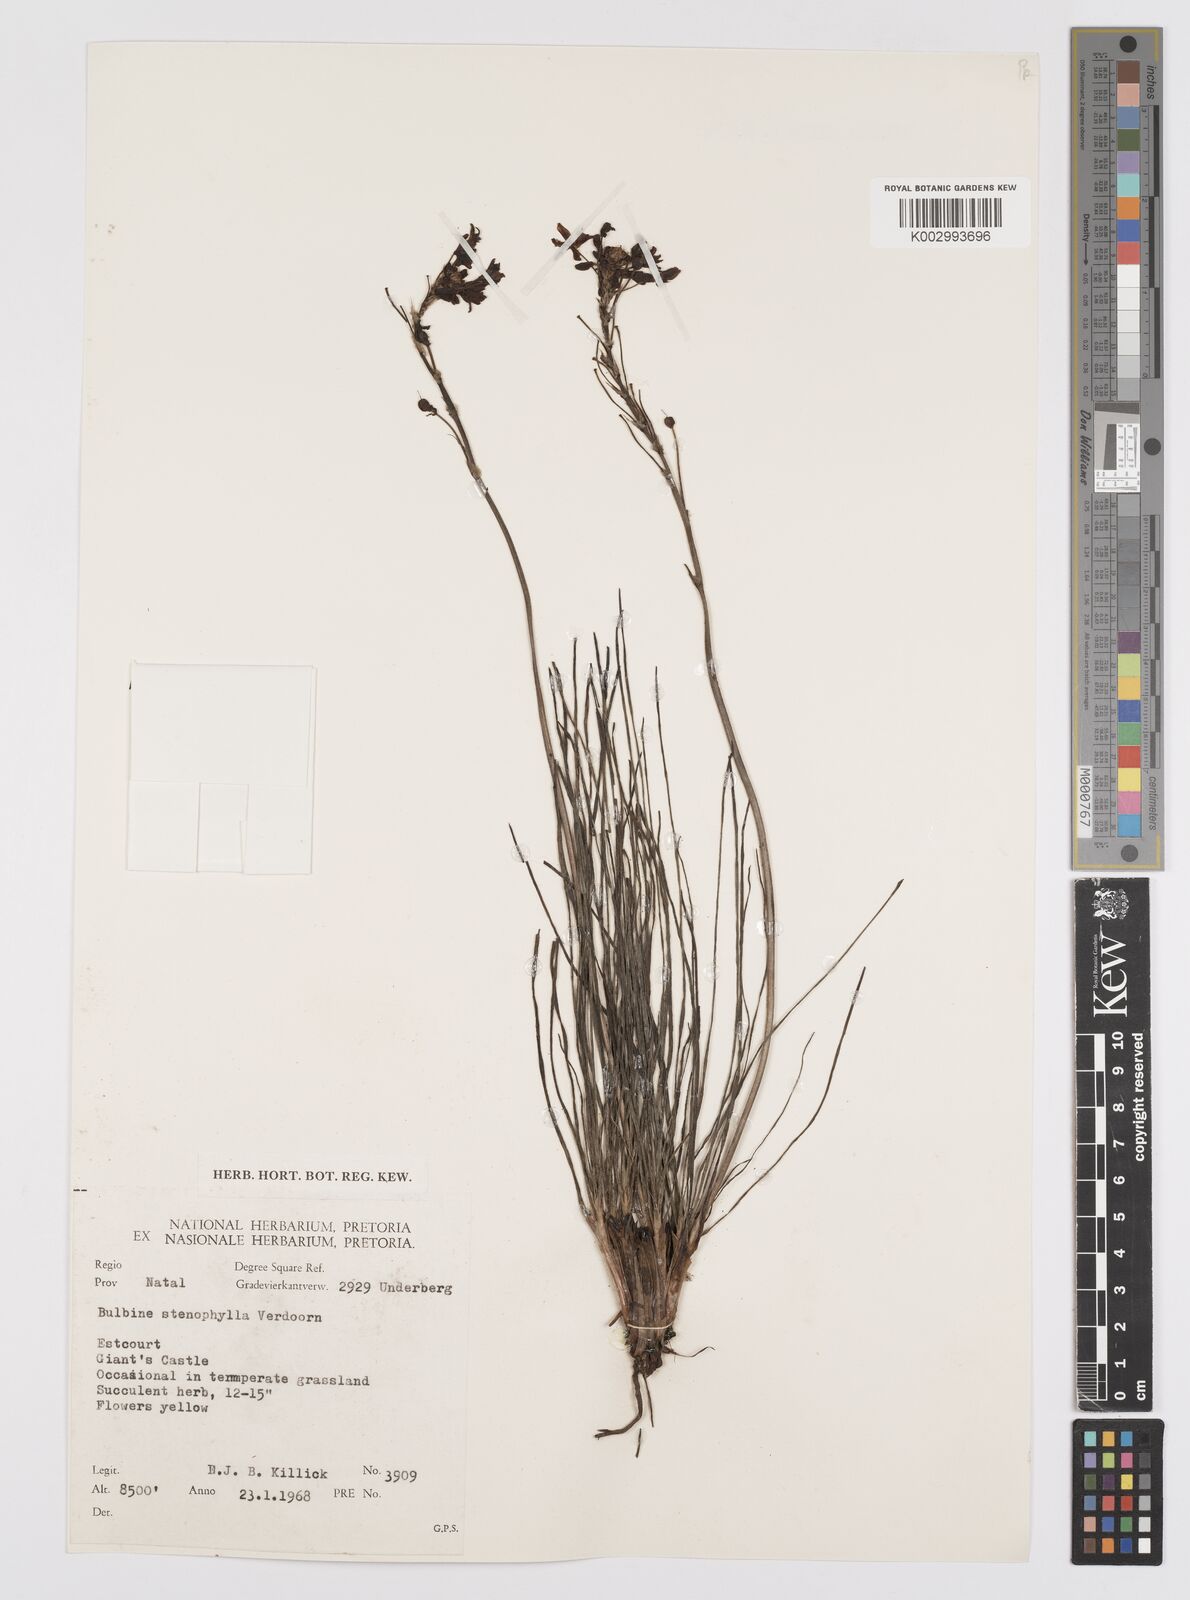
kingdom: Plantae
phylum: Tracheophyta
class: Liliopsida
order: Asparagales
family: Asphodelaceae
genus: Bulbine
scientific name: Bulbine capitata
